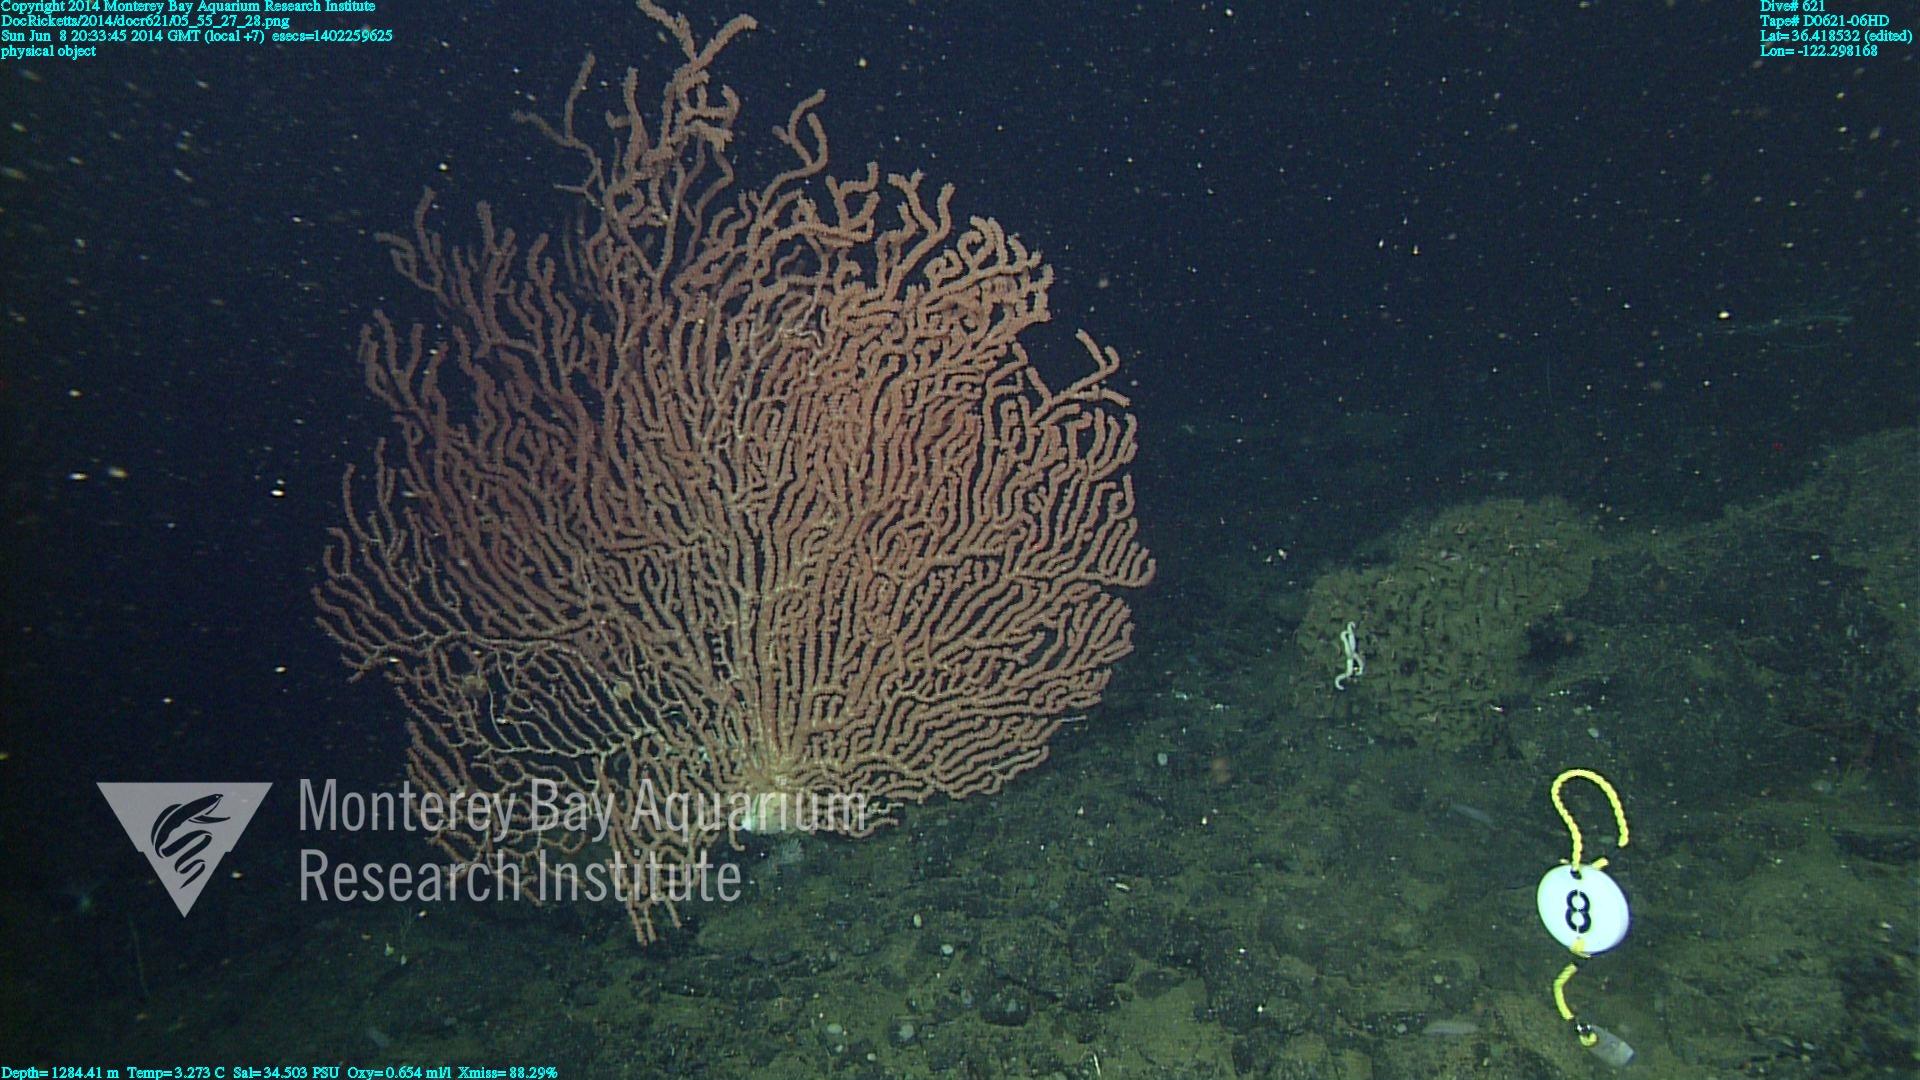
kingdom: Animalia
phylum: Cnidaria
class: Anthozoa
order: Scleralcyonacea
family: Keratoisididae
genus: Keratoisis
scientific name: Keratoisis
